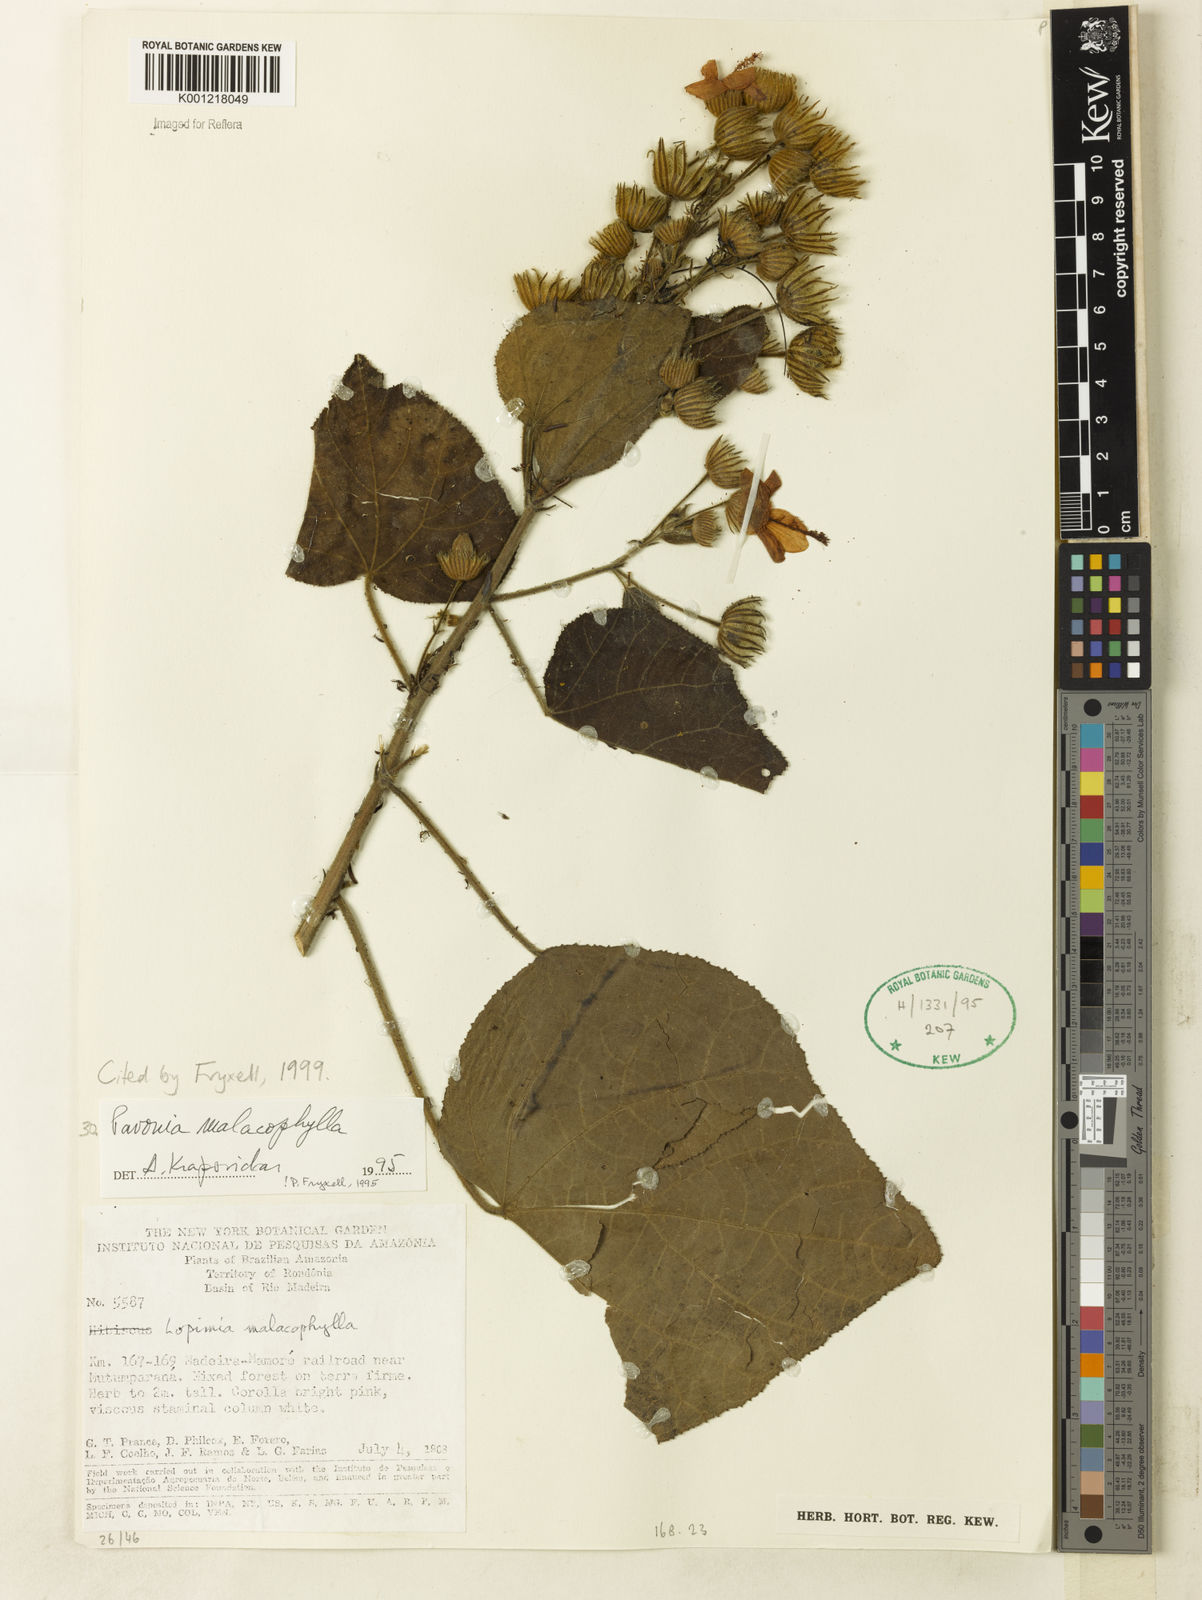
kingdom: Plantae
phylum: Tracheophyta
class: Magnoliopsida
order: Malvales
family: Malvaceae
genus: Pavonia
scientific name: Pavonia malacophylla
